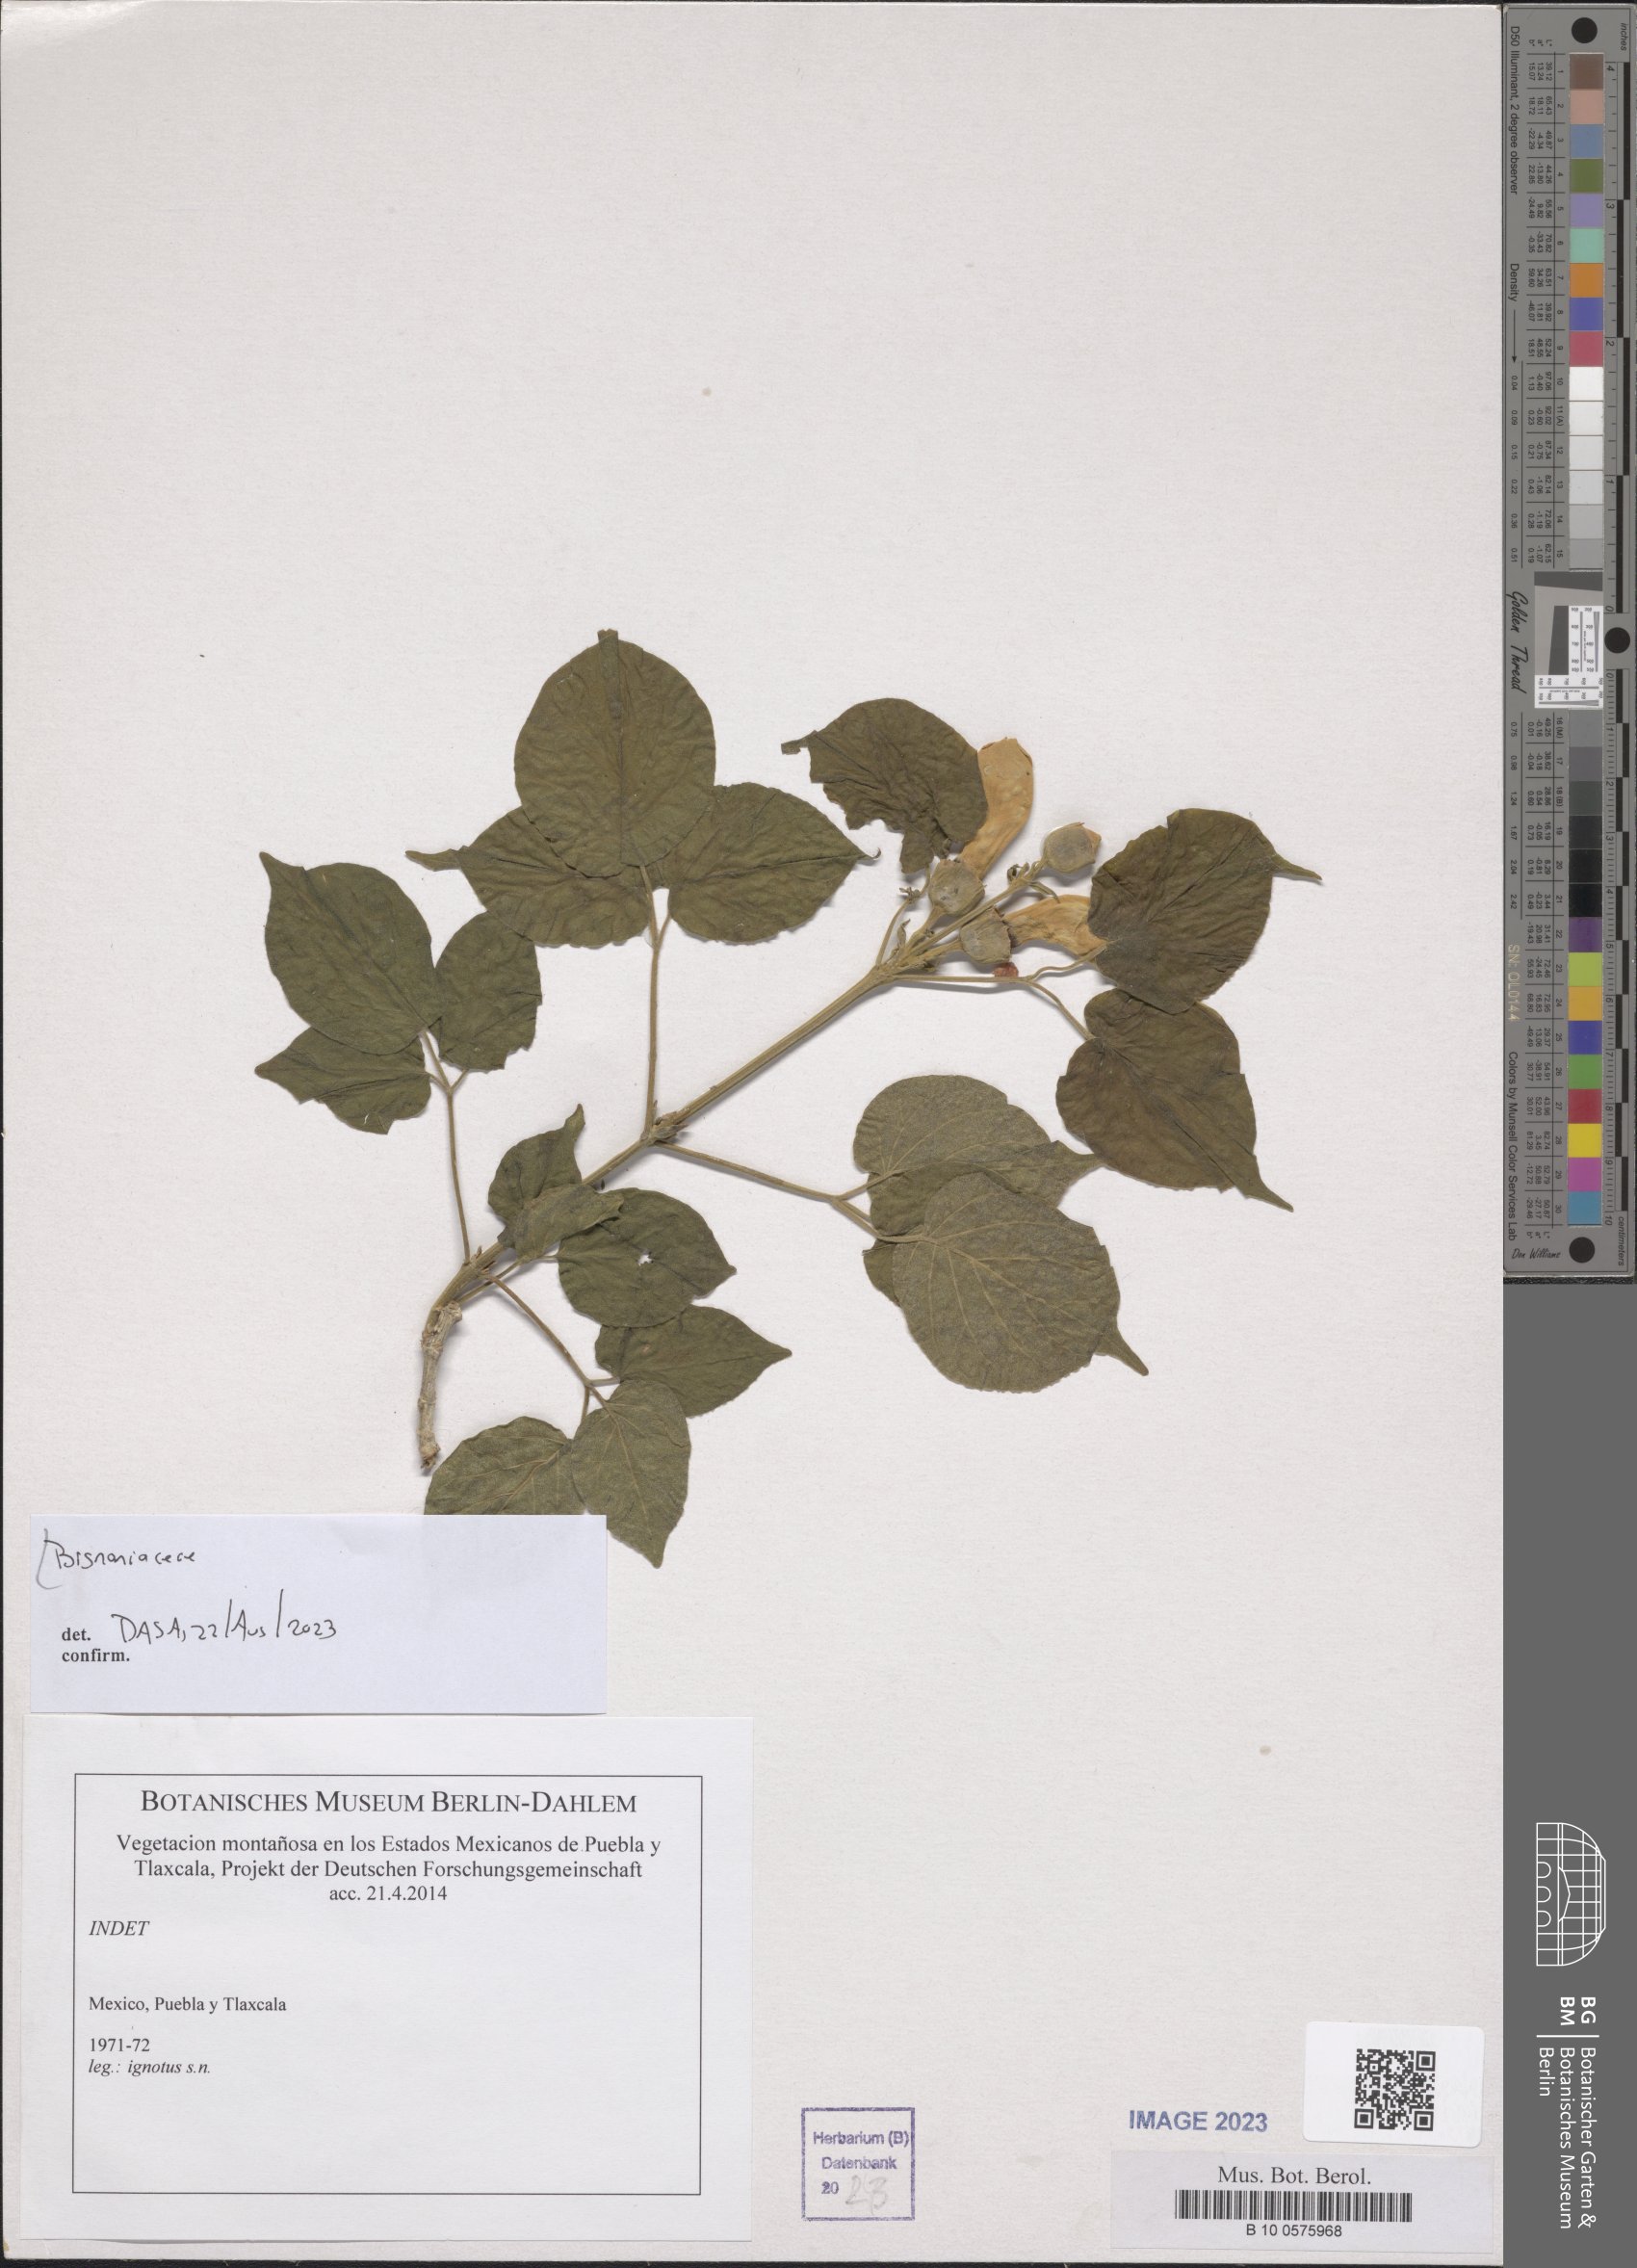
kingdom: Plantae
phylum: Tracheophyta
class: Magnoliopsida
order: Lamiales
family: Bignoniaceae
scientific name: Bignoniaceae
